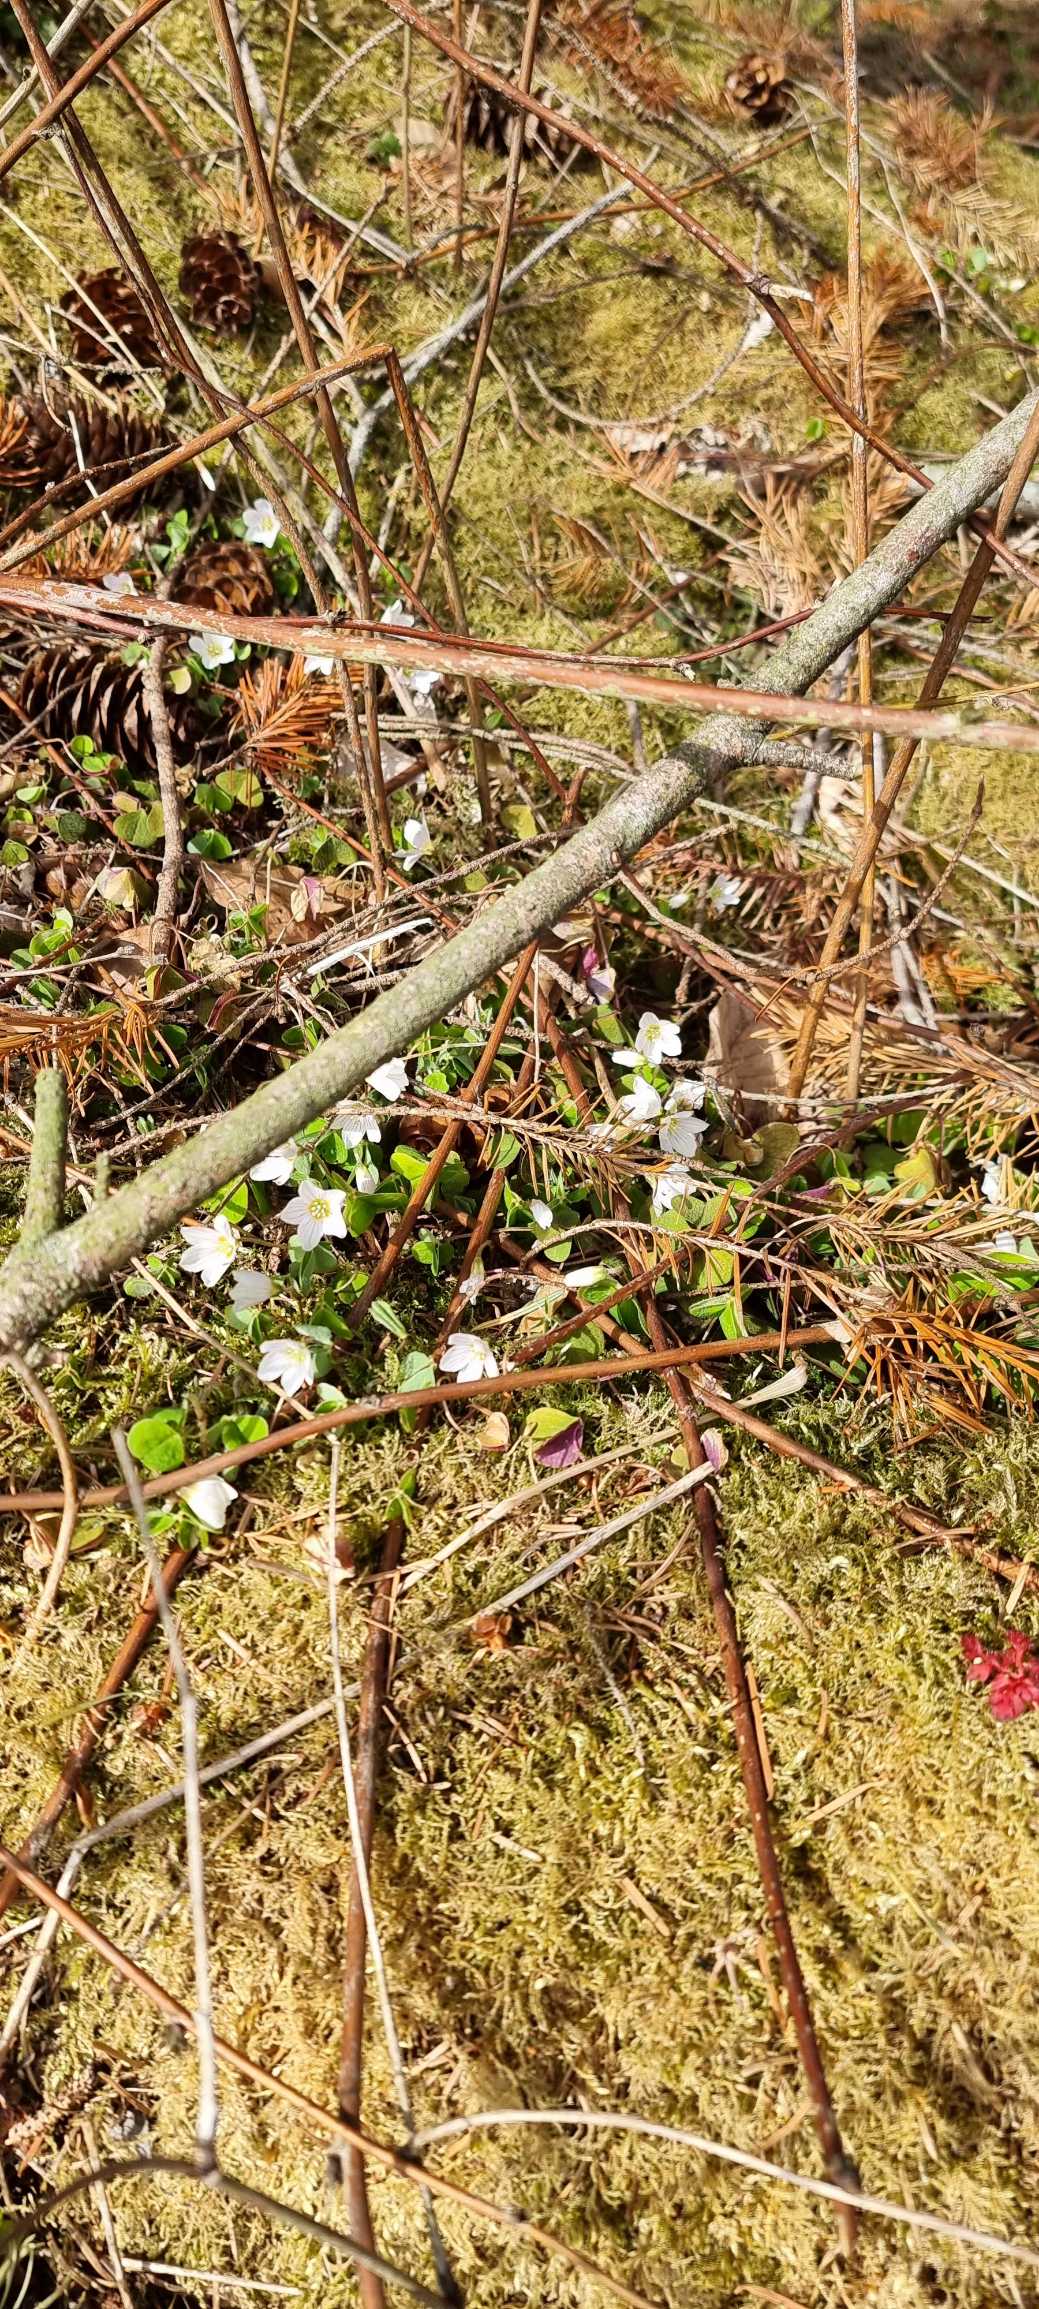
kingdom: Plantae
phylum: Tracheophyta
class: Magnoliopsida
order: Oxalidales
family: Oxalidaceae
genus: Oxalis
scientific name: Oxalis acetosella
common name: Skovsyre
